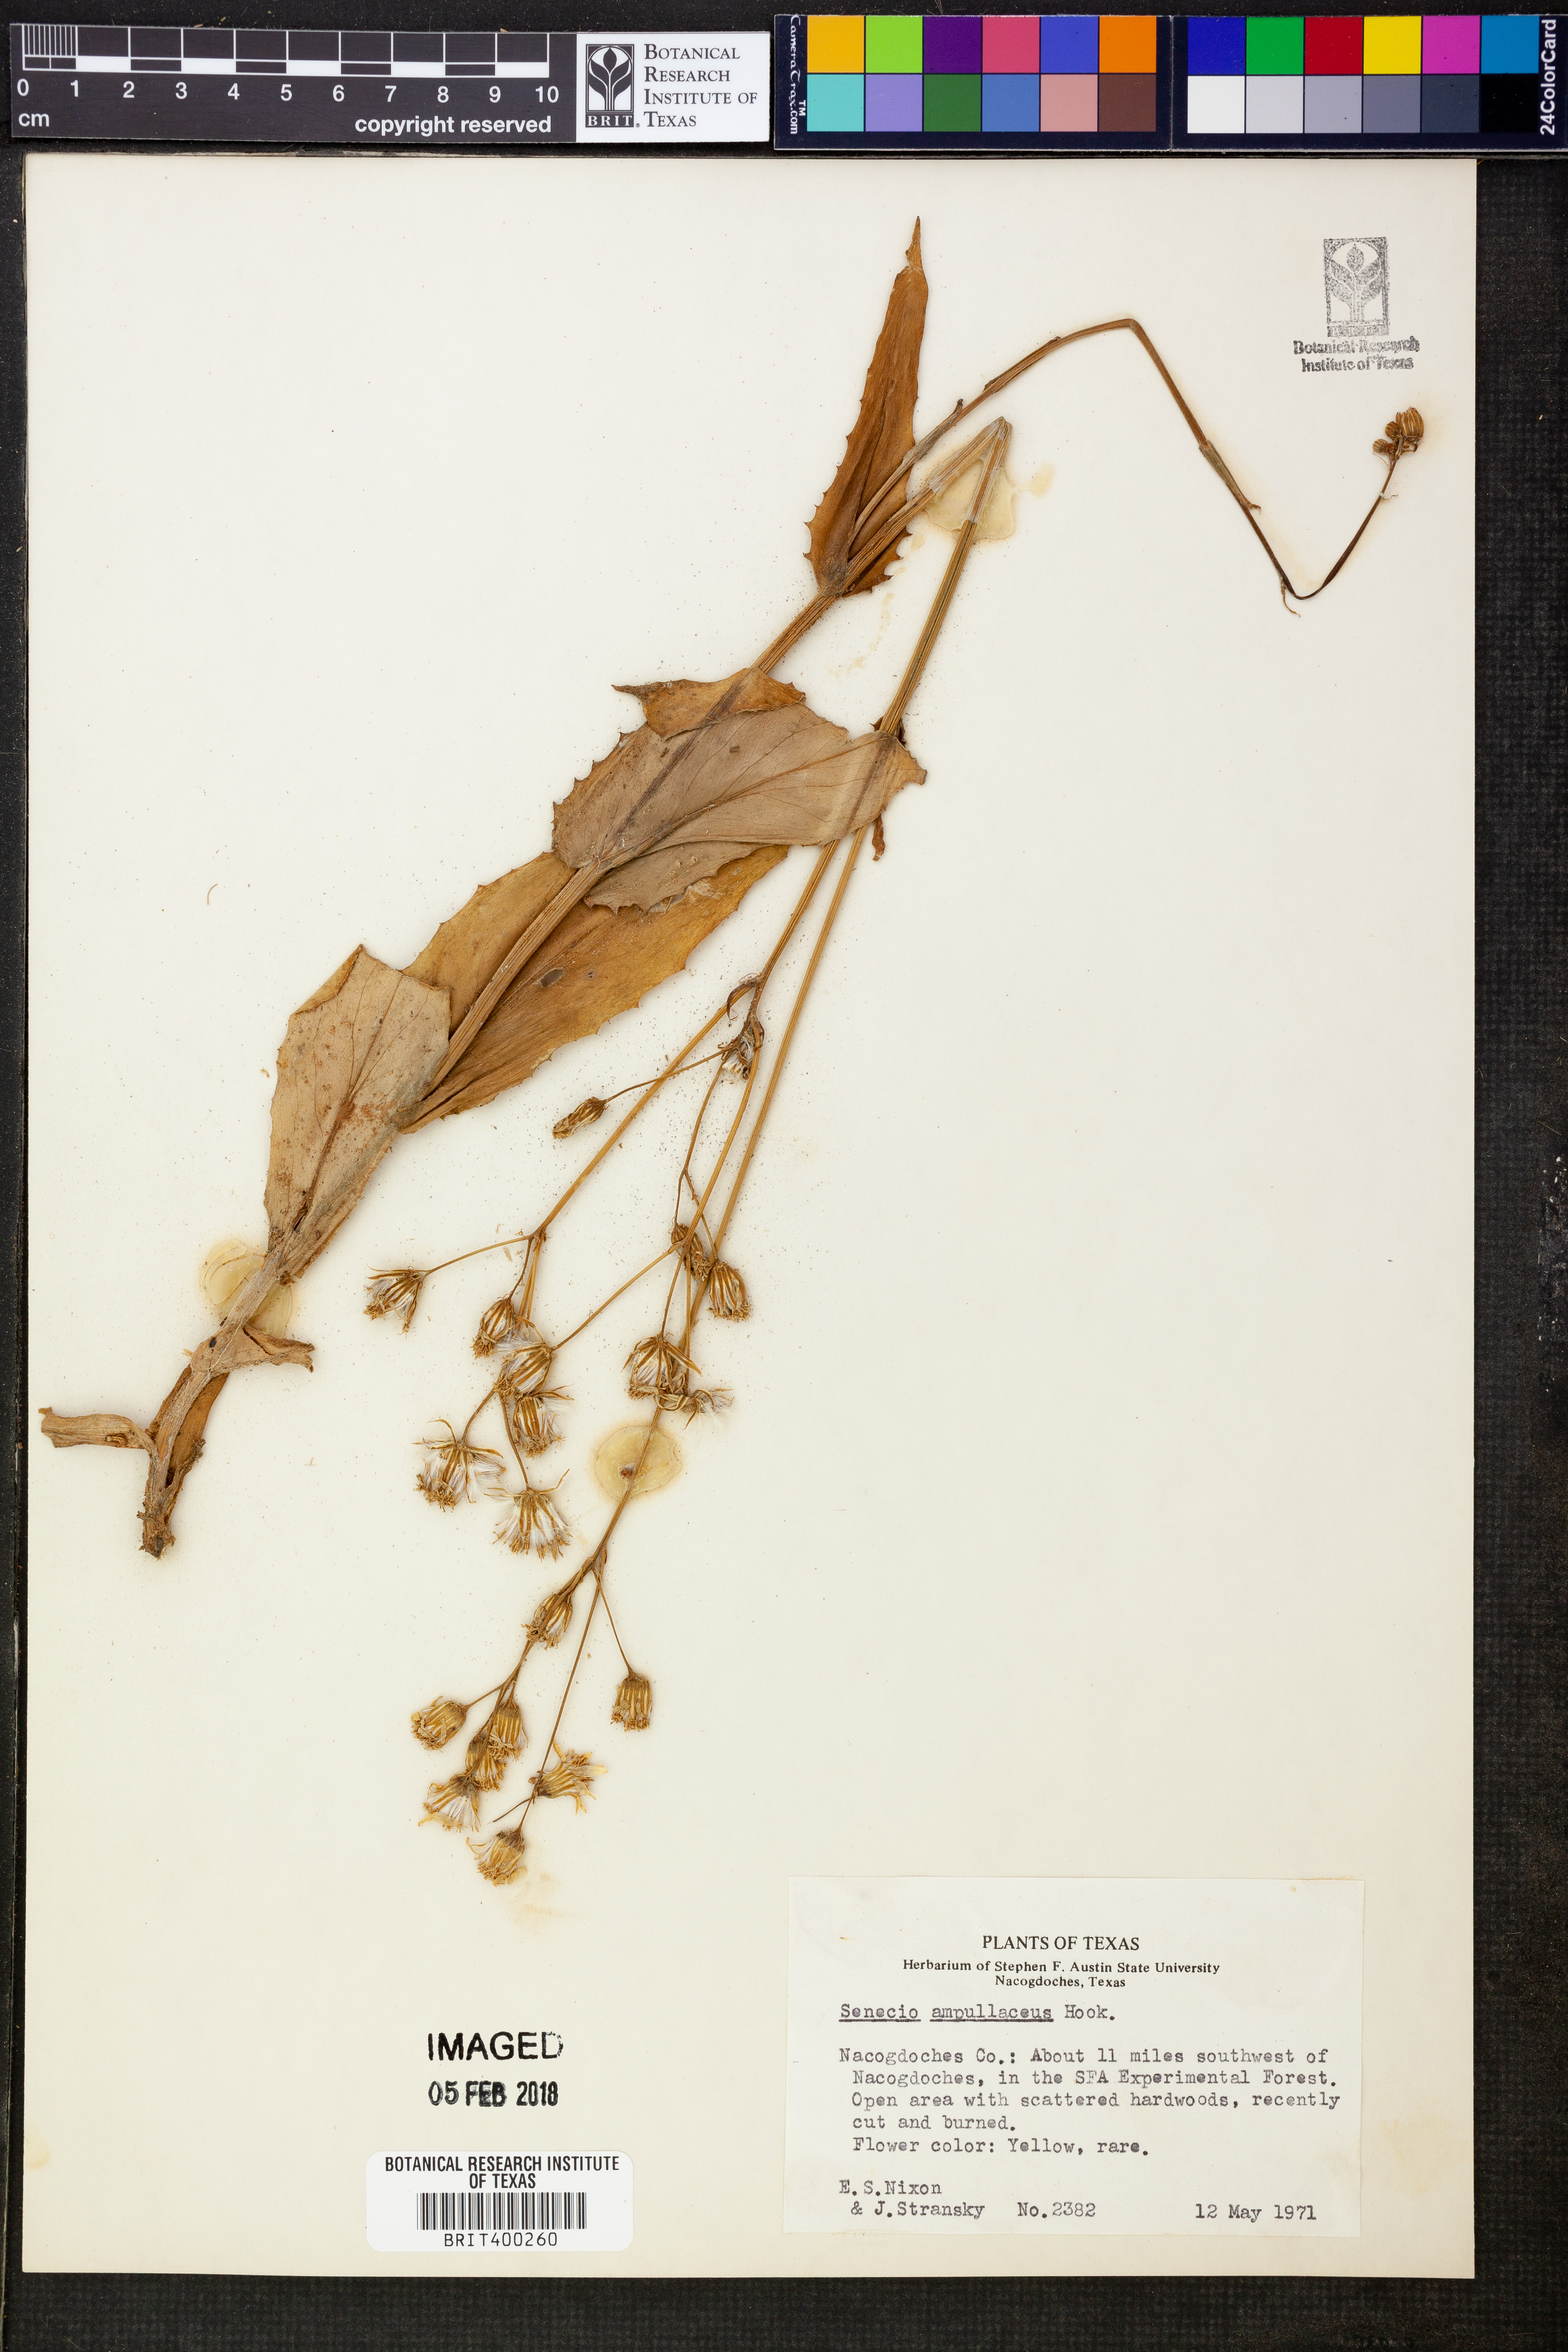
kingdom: Plantae
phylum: Tracheophyta
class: Magnoliopsida
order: Asterales
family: Asteraceae
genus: Senecio
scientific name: Senecio ampullaceus
